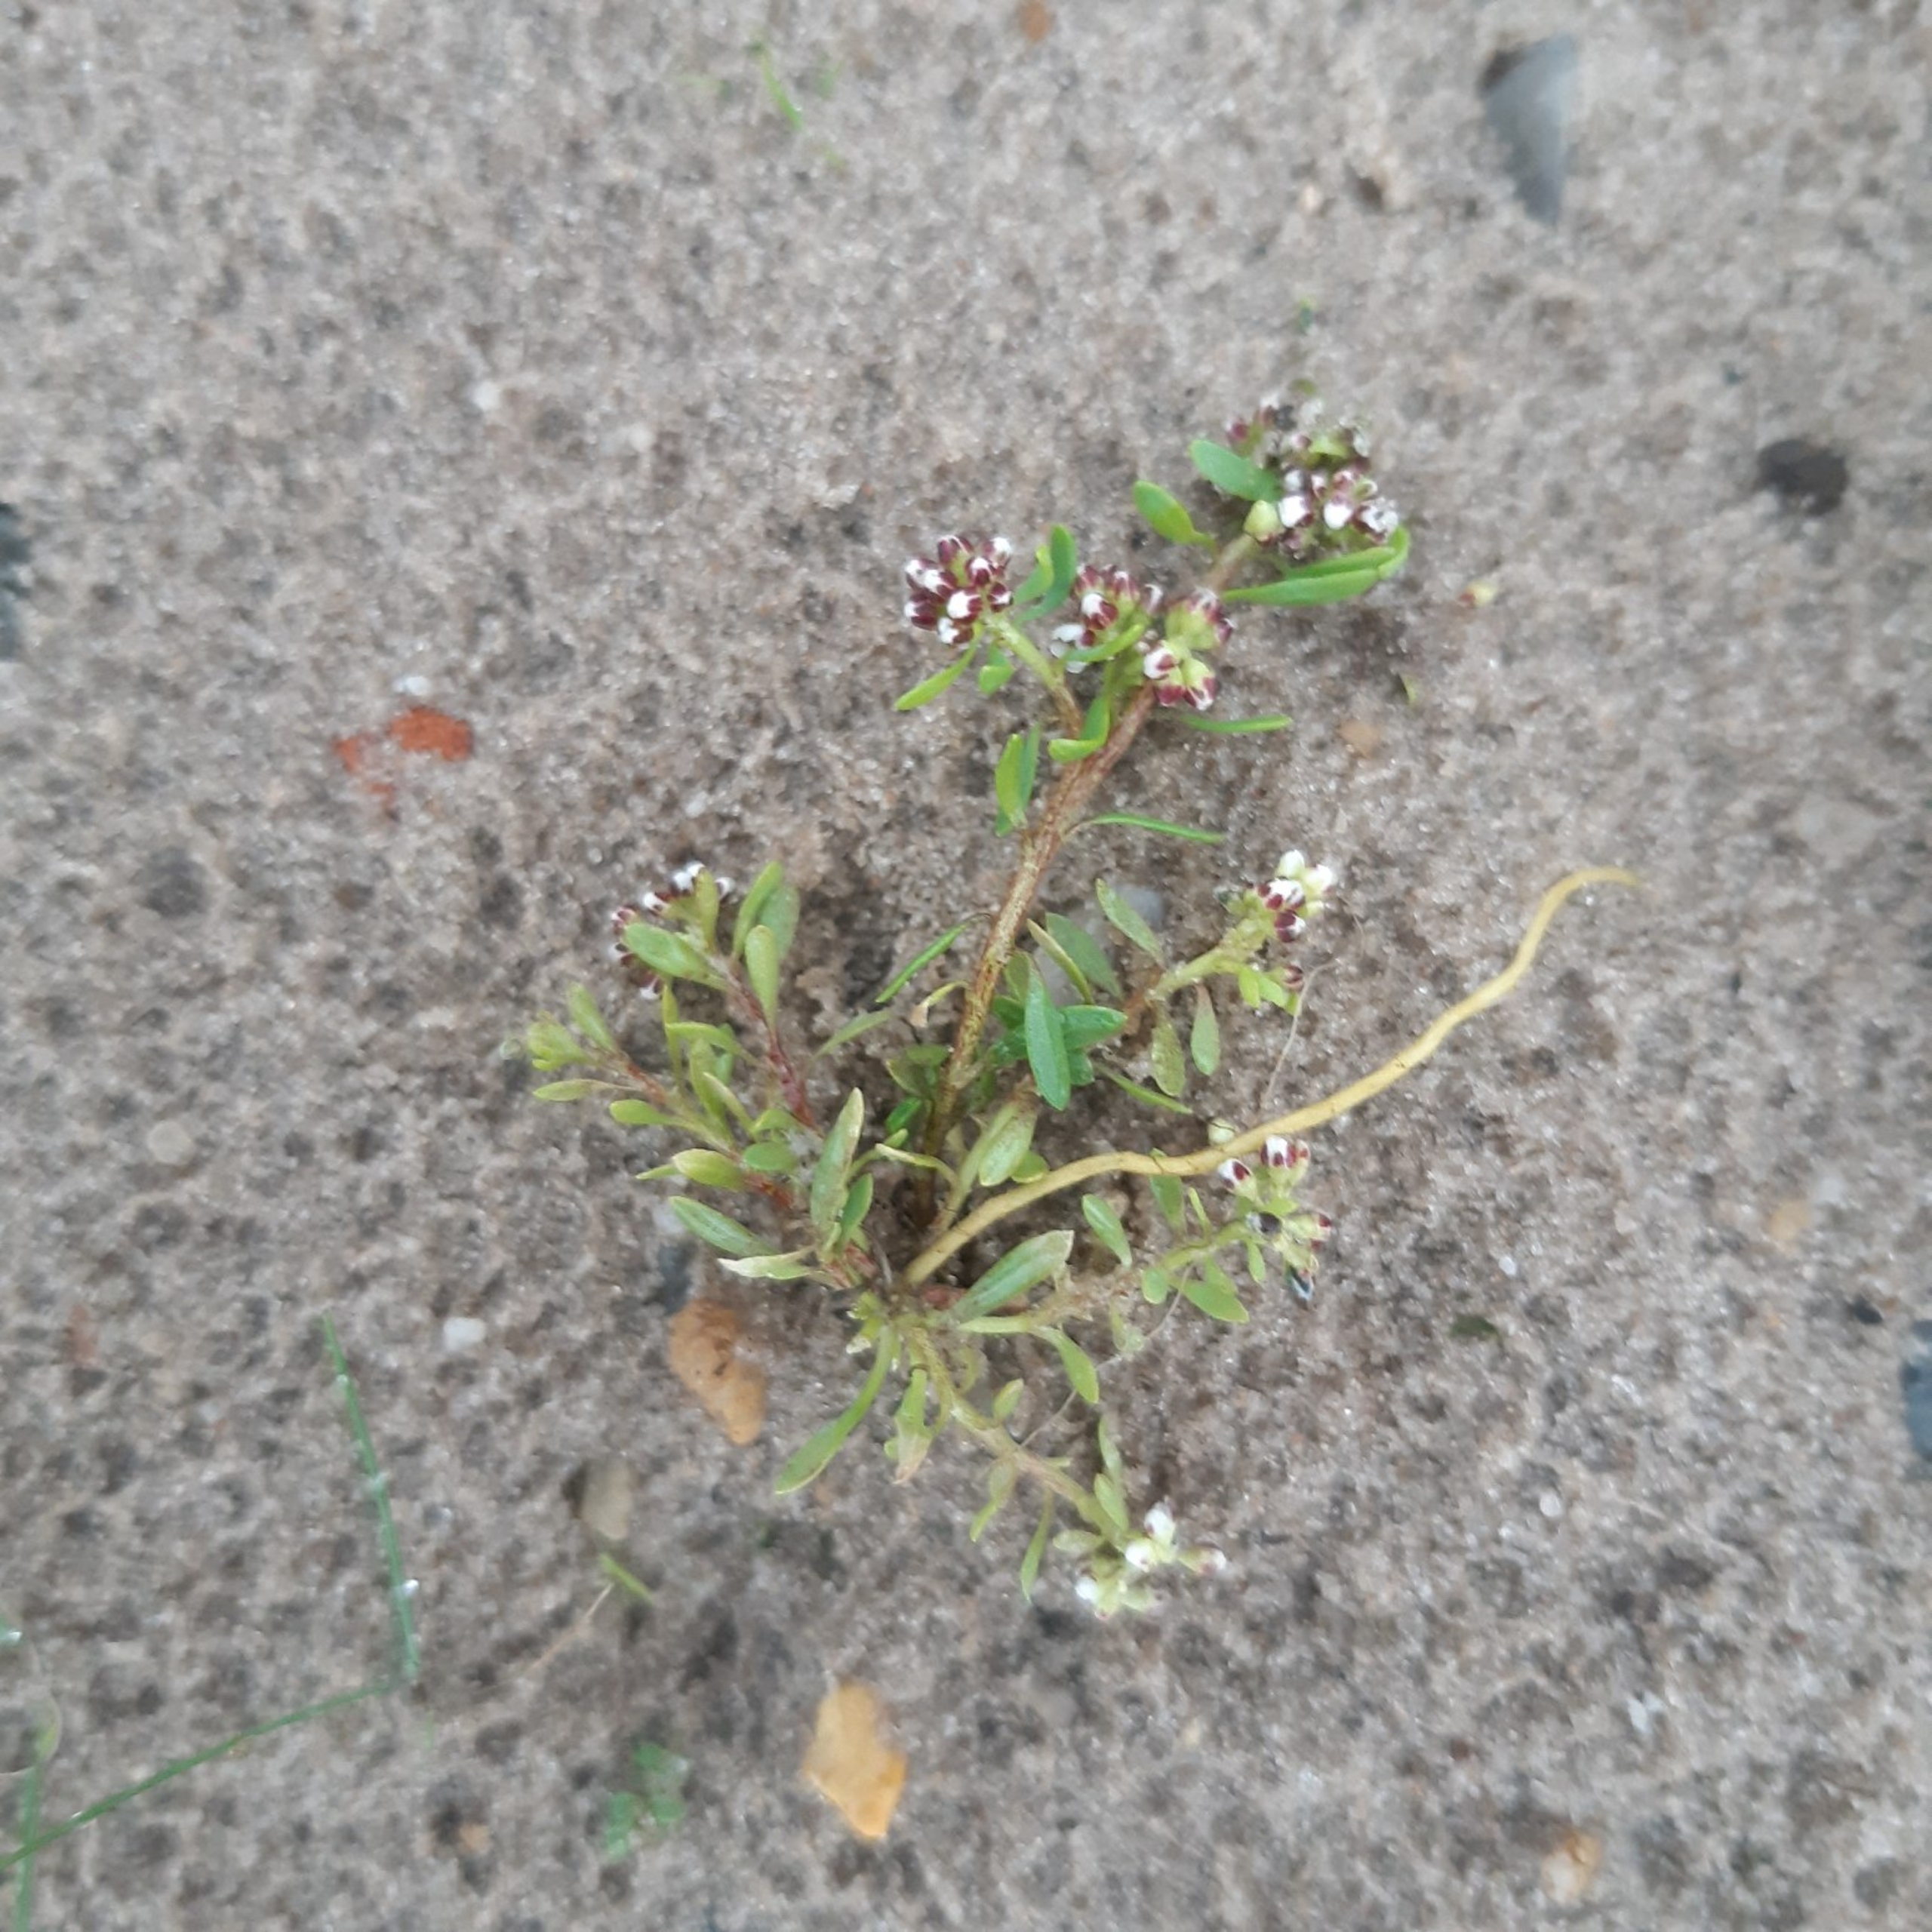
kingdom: Plantae
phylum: Tracheophyta
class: Magnoliopsida
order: Caryophyllales
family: Caryophyllaceae
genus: Corrigiola
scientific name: Corrigiola litoralis
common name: Skorem
